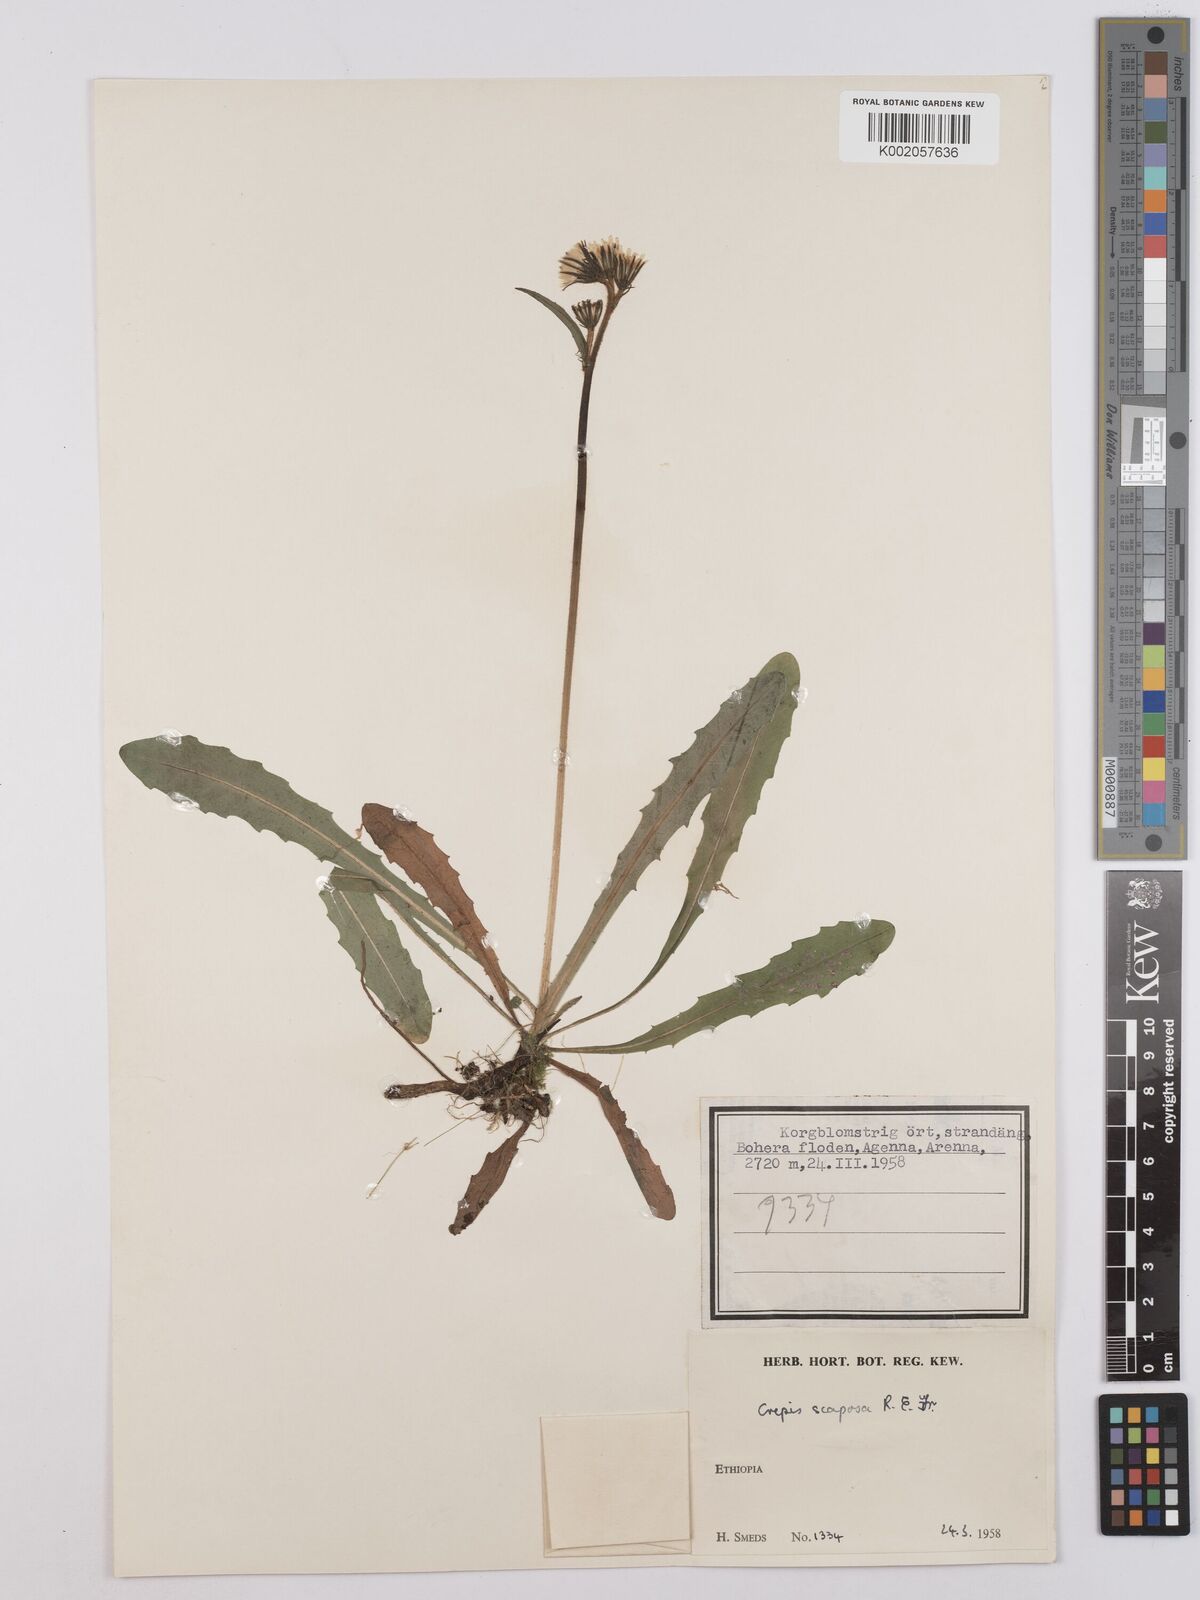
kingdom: Plantae
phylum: Tracheophyta
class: Magnoliopsida
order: Asterales
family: Asteraceae
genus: Crepis
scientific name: Crepis carbonaria
